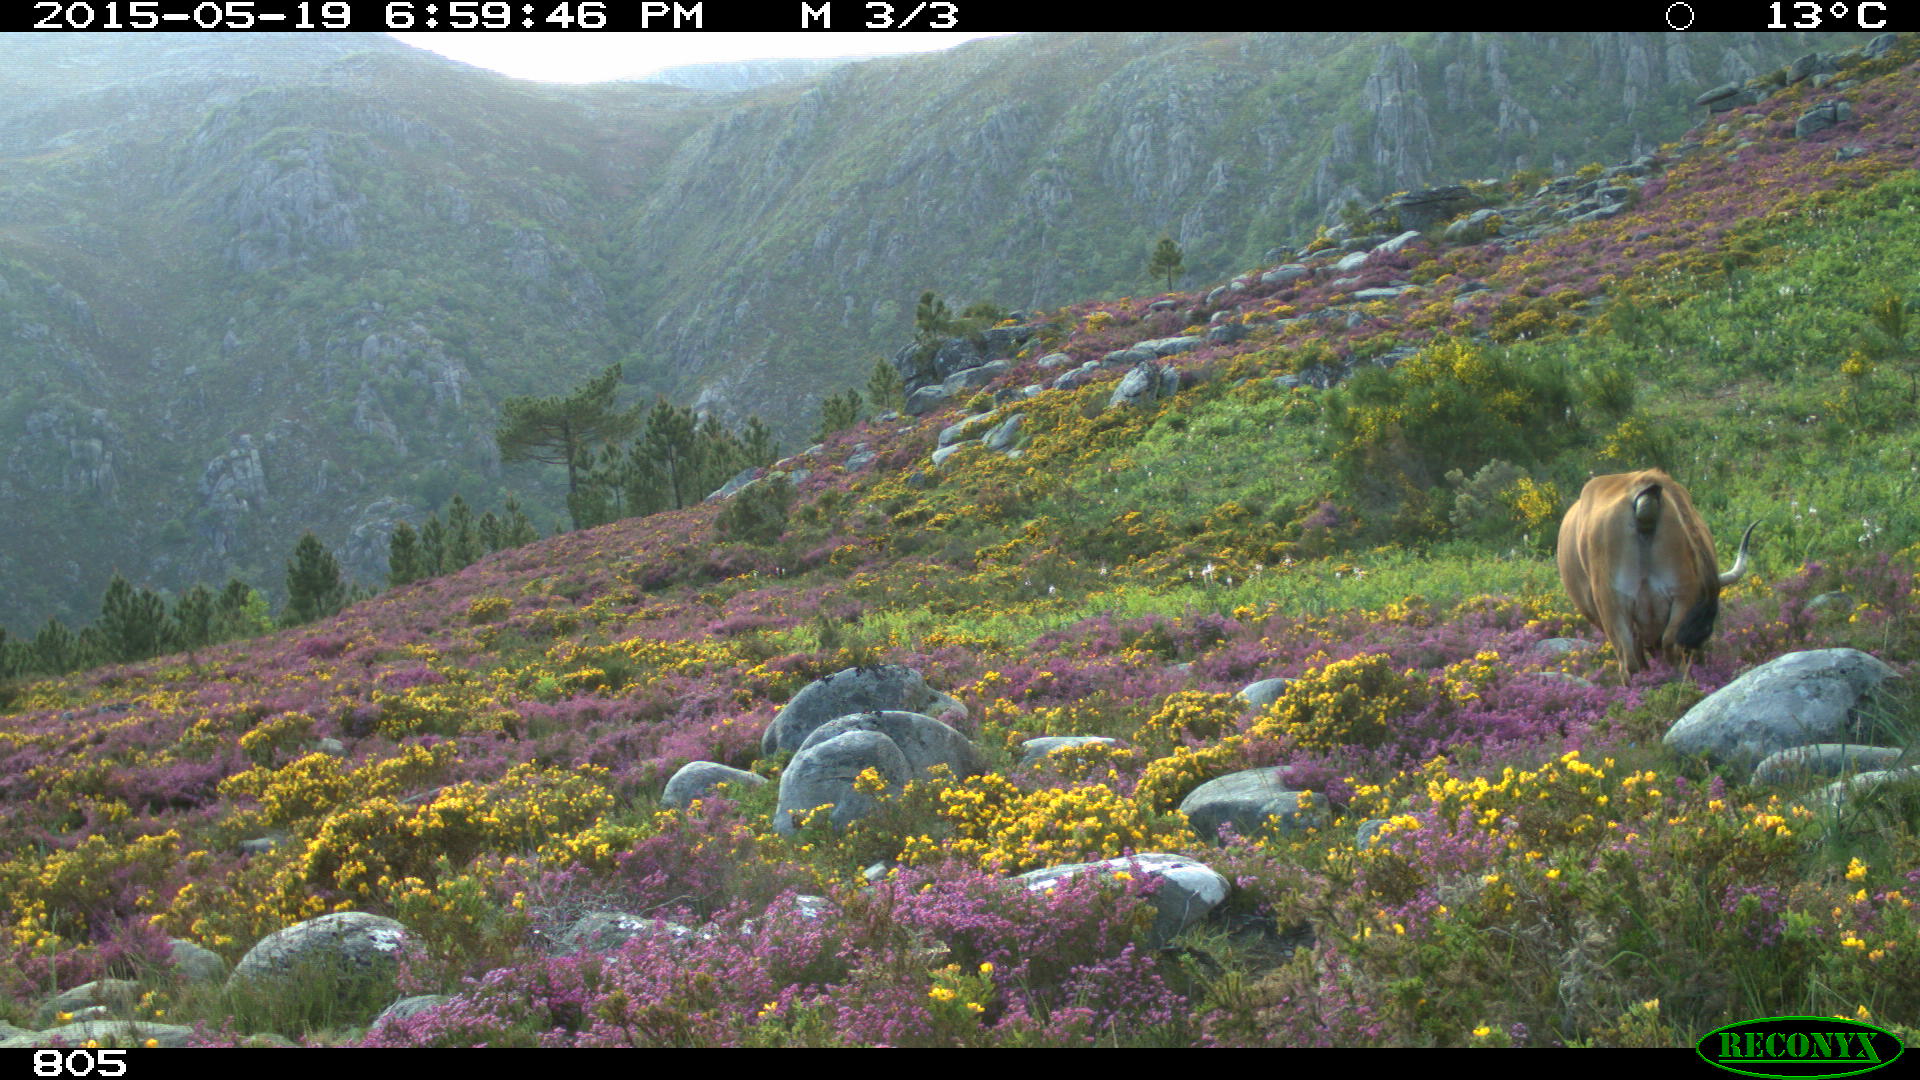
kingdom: Animalia
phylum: Chordata
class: Mammalia
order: Artiodactyla
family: Bovidae
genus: Bos
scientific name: Bos taurus
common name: Domesticated cattle
